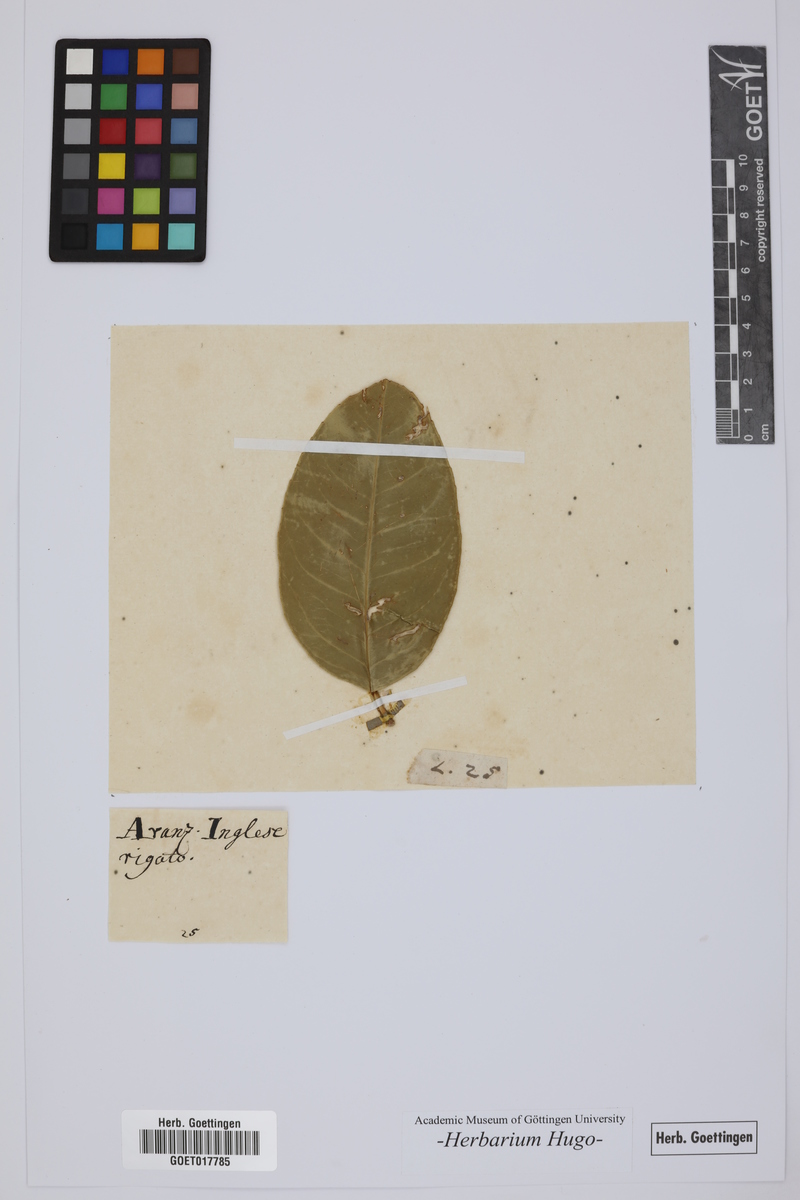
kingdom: Plantae
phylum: Tracheophyta
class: Magnoliopsida
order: Sapindales
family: Rutaceae
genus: Citrus
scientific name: Citrus
